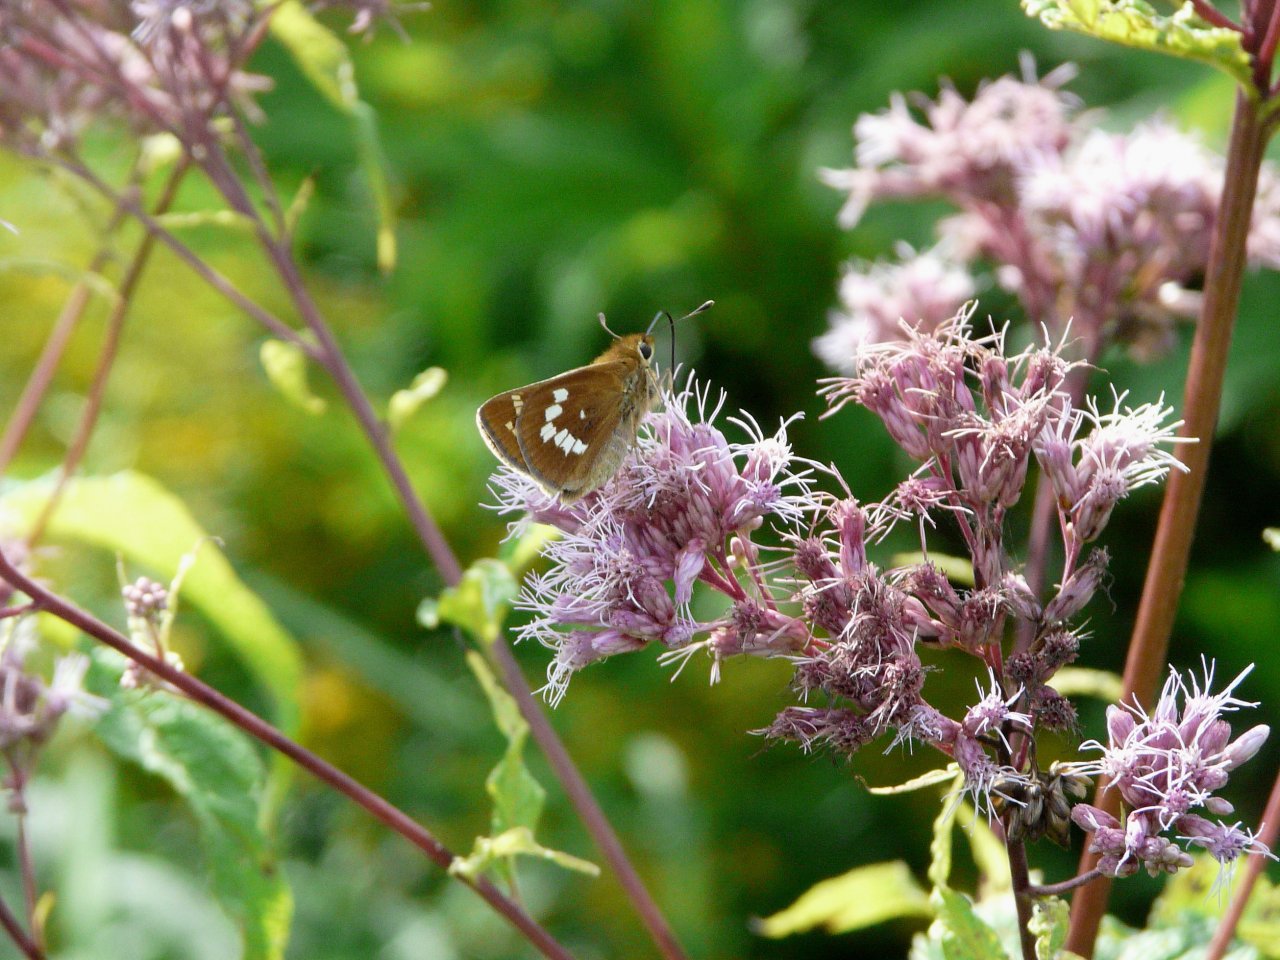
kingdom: Animalia
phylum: Arthropoda
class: Insecta
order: Lepidoptera
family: Hesperiidae
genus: Hesperia
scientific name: Hesperia leonardus
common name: Leonard's Skipper
